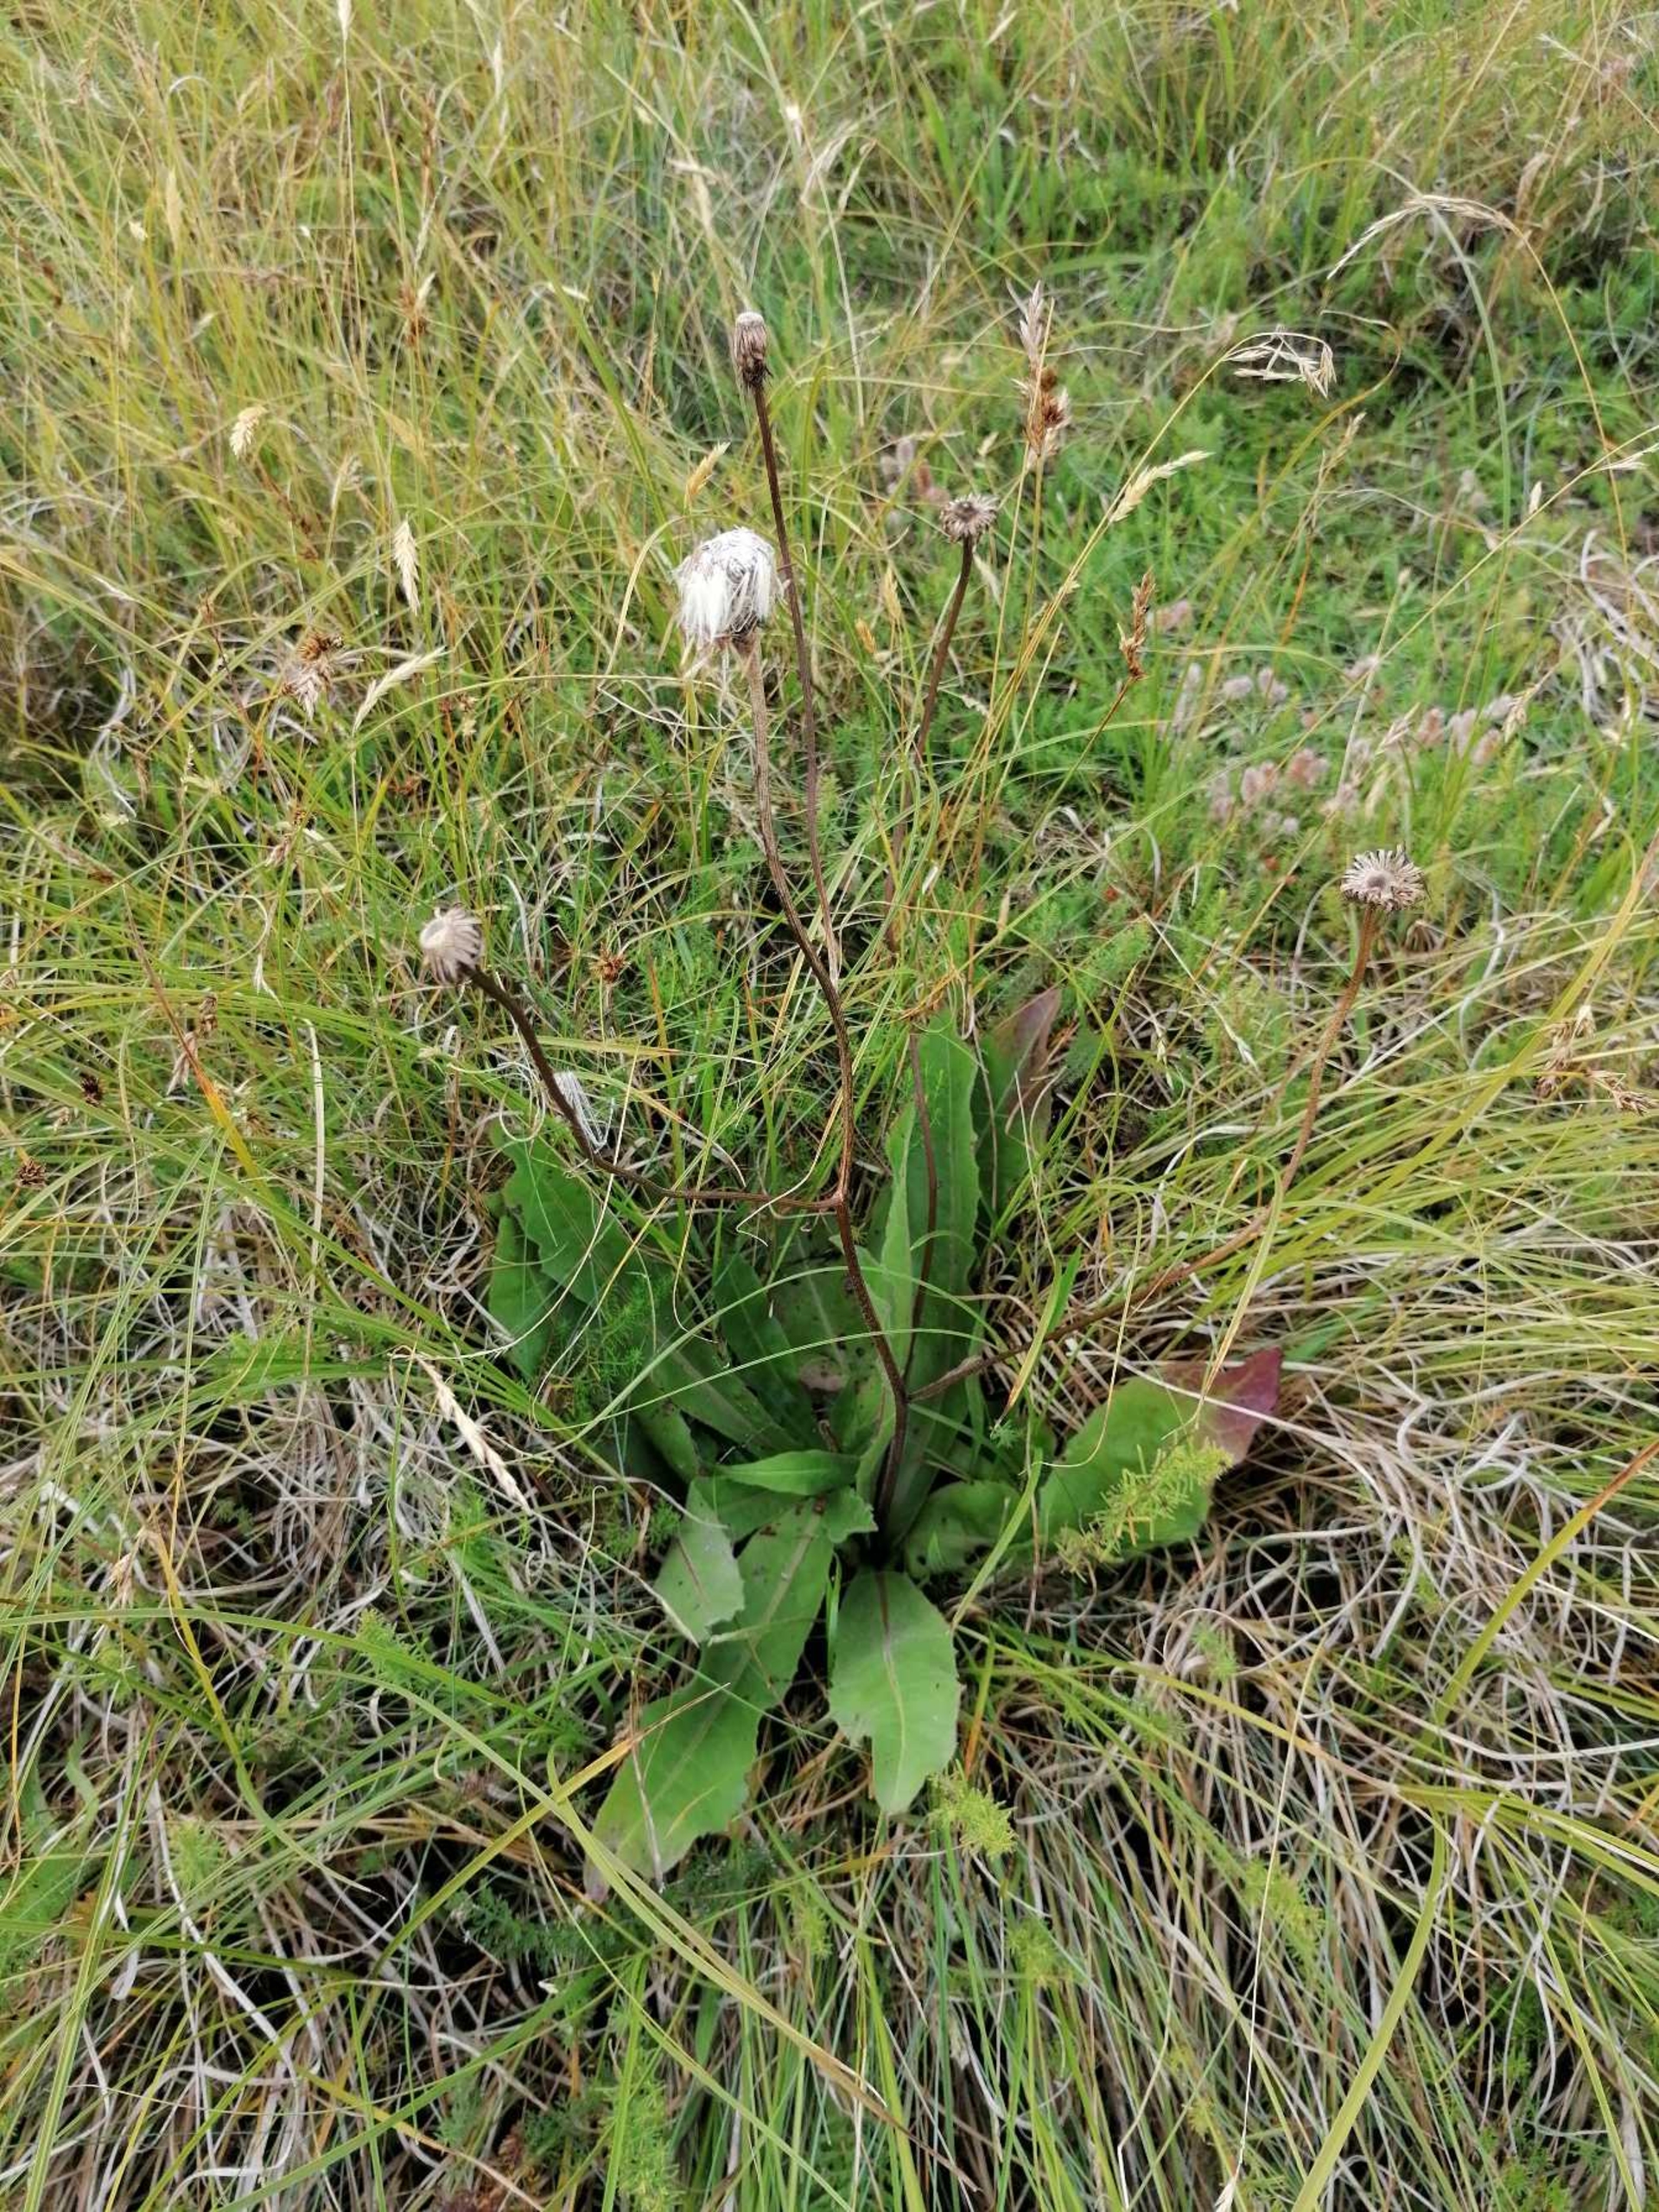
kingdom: Plantae
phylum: Tracheophyta
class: Magnoliopsida
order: Asterales
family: Asteraceae
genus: Trommsdorffia
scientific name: Trommsdorffia maculata
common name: Plettet kongepen
